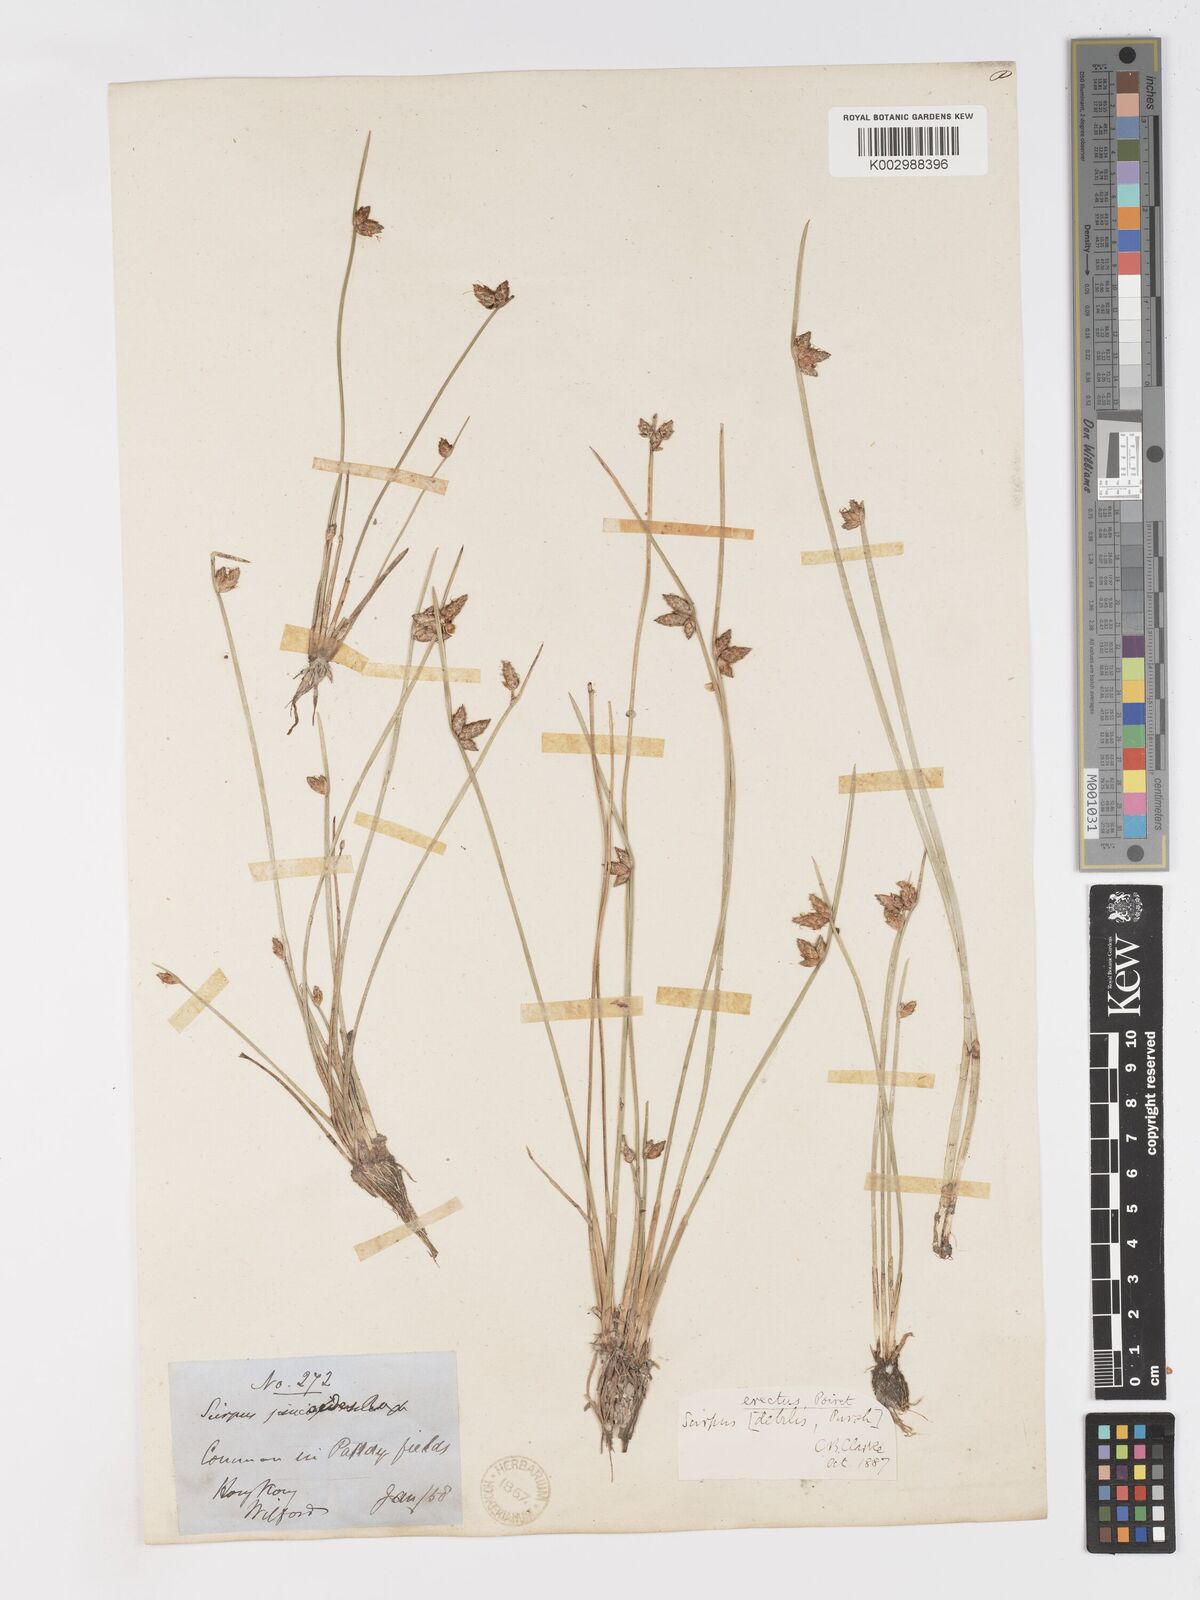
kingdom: Plantae
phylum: Tracheophyta
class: Liliopsida
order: Poales
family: Cyperaceae
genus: Schoenoplectiella
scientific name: Schoenoplectiella erecta
